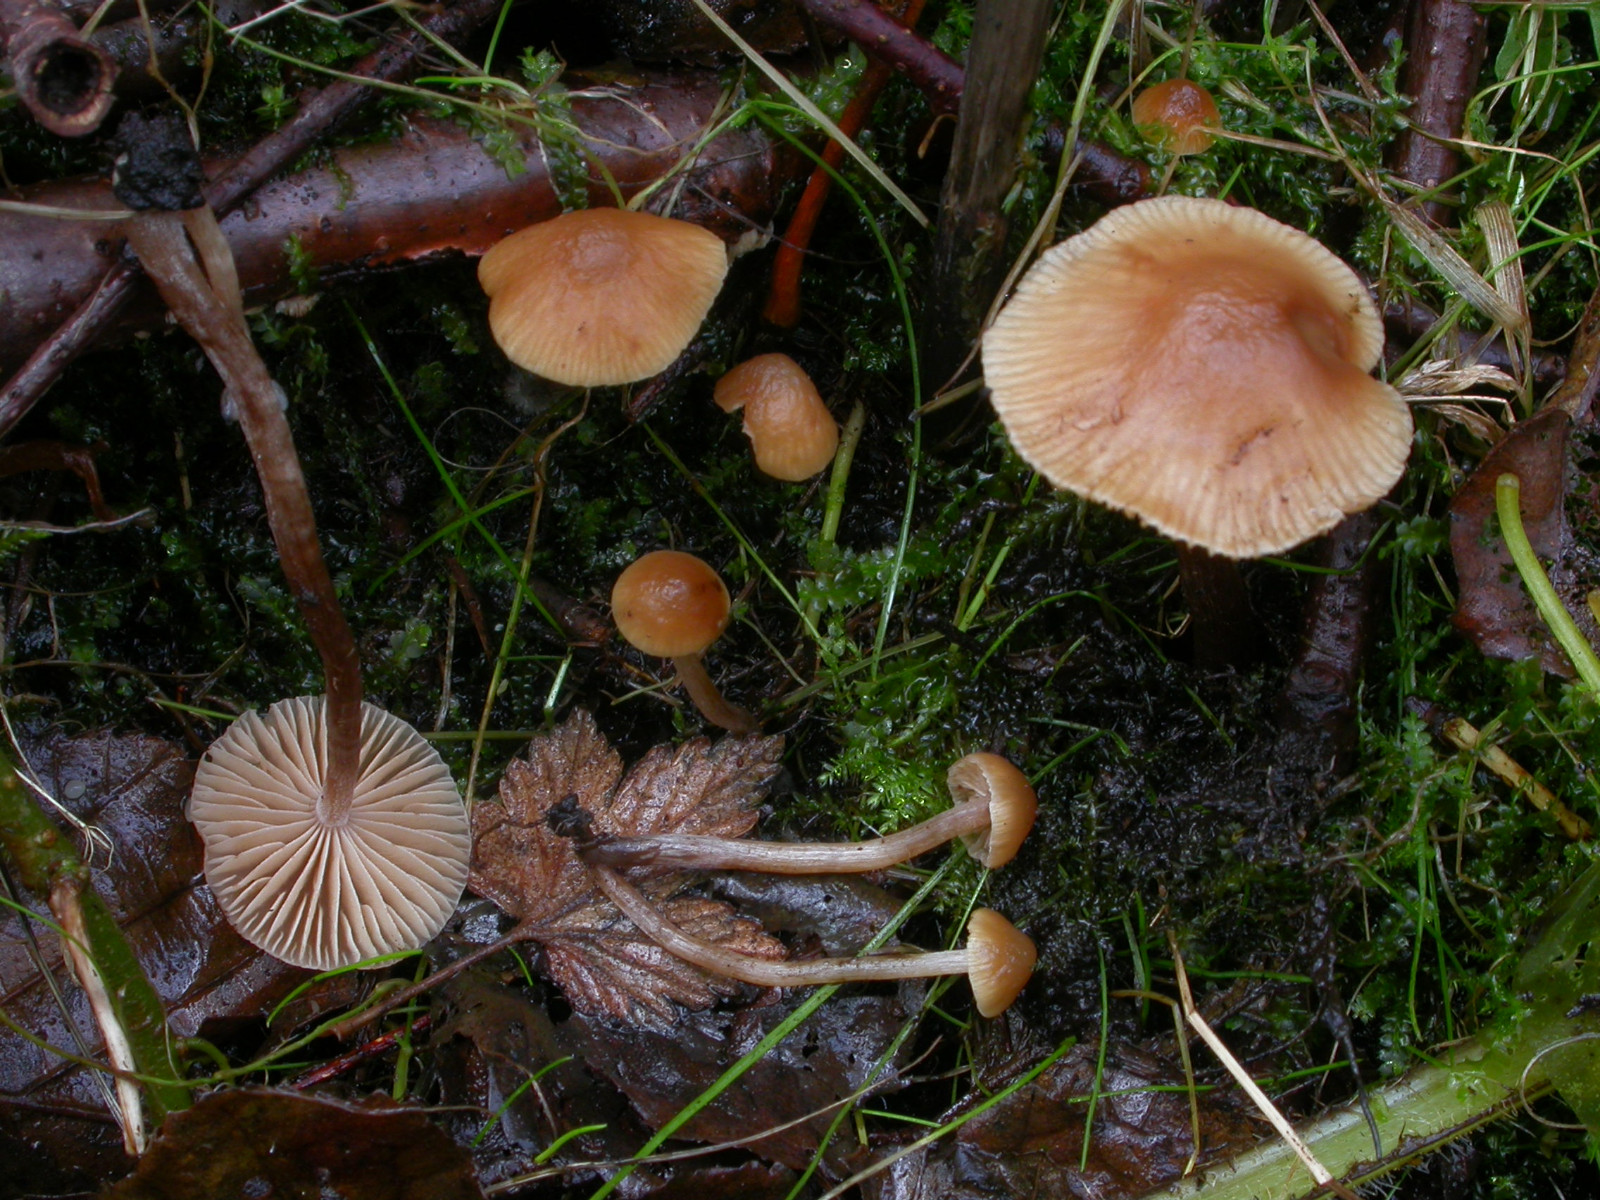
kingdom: Fungi
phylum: Basidiomycota
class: Agaricomycetes
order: Agaricales
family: Hymenogastraceae
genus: Naucoria
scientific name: Naucoria celluloderma
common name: enlig knaphat
